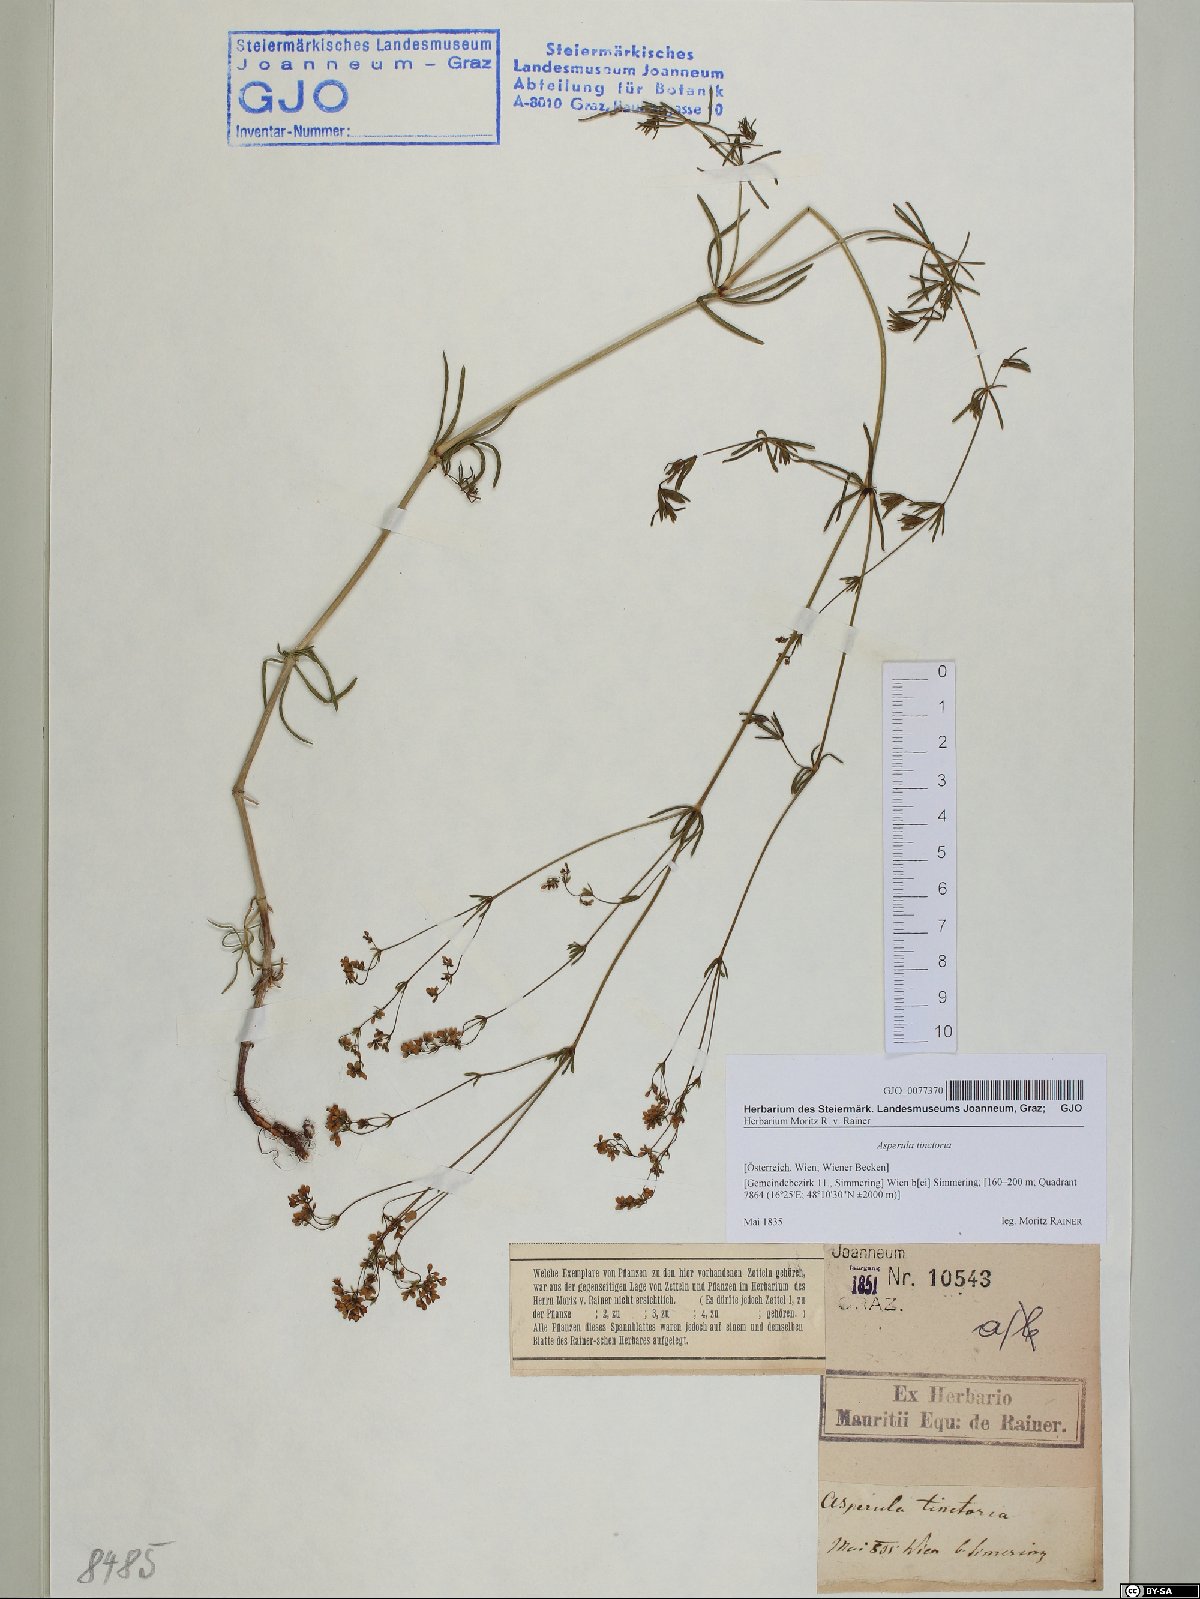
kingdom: Plantae
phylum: Tracheophyta
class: Magnoliopsida
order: Gentianales
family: Rubiaceae
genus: Asperula
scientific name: Asperula tinctoria
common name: Dyer's woodruff
